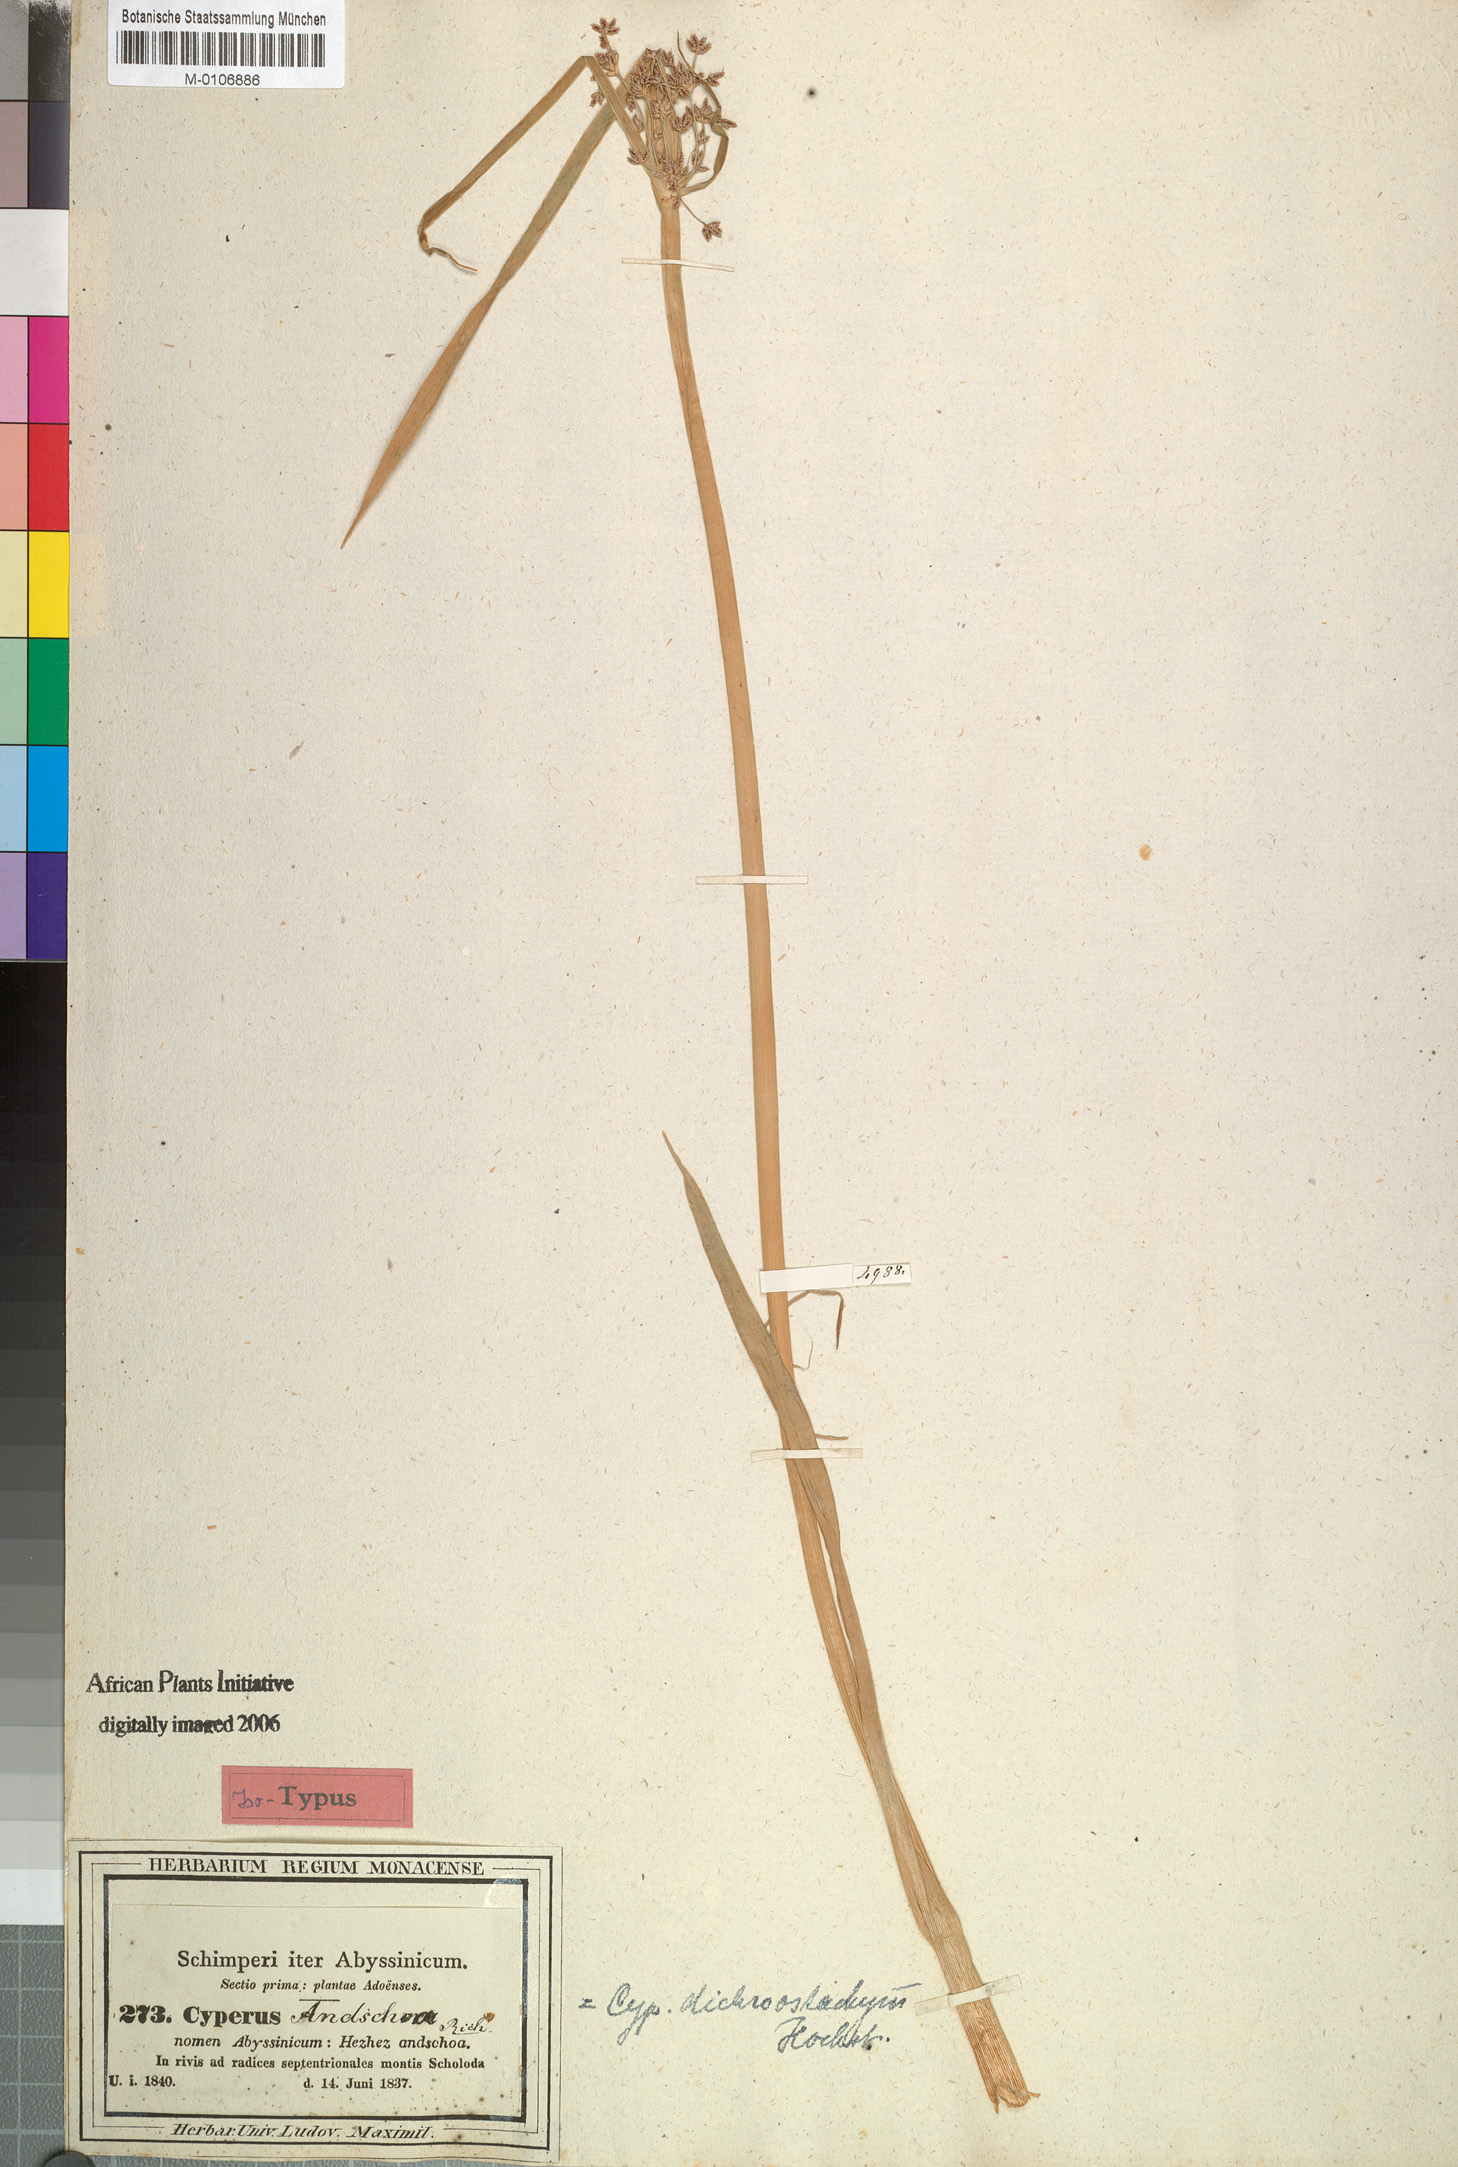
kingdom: Plantae
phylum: Tracheophyta
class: Liliopsida
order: Poales
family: Cyperaceae
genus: Cyperus
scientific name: Cyperus dichrostachyus
